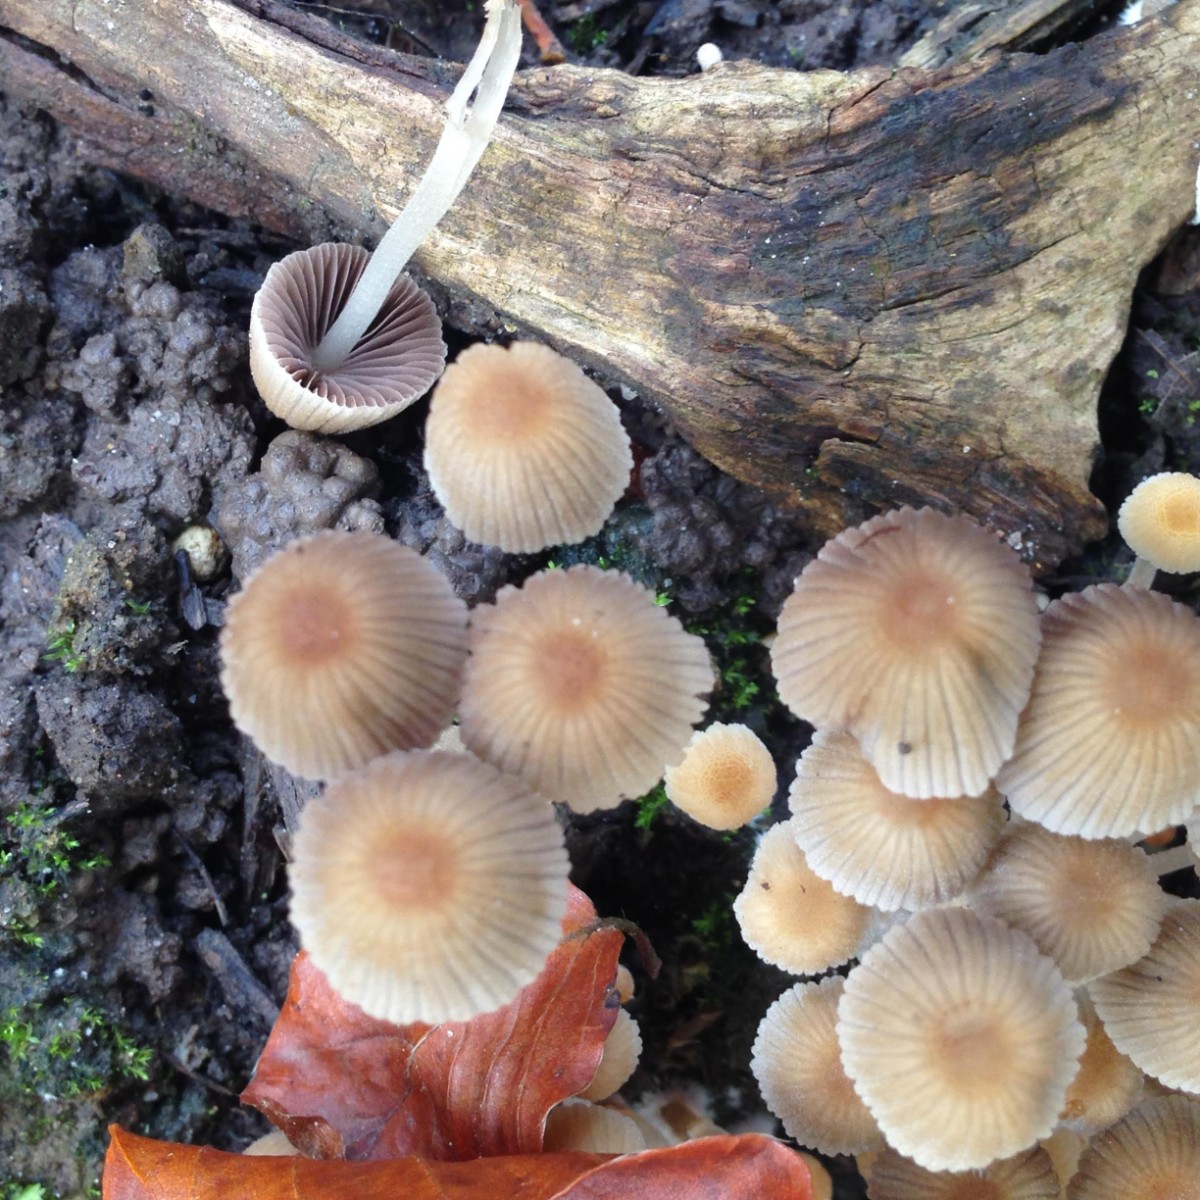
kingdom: Fungi
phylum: Basidiomycota
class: Agaricomycetes
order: Agaricales
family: Psathyrellaceae
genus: Coprinellus
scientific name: Coprinellus disseminatus
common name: bredsået blækhat
